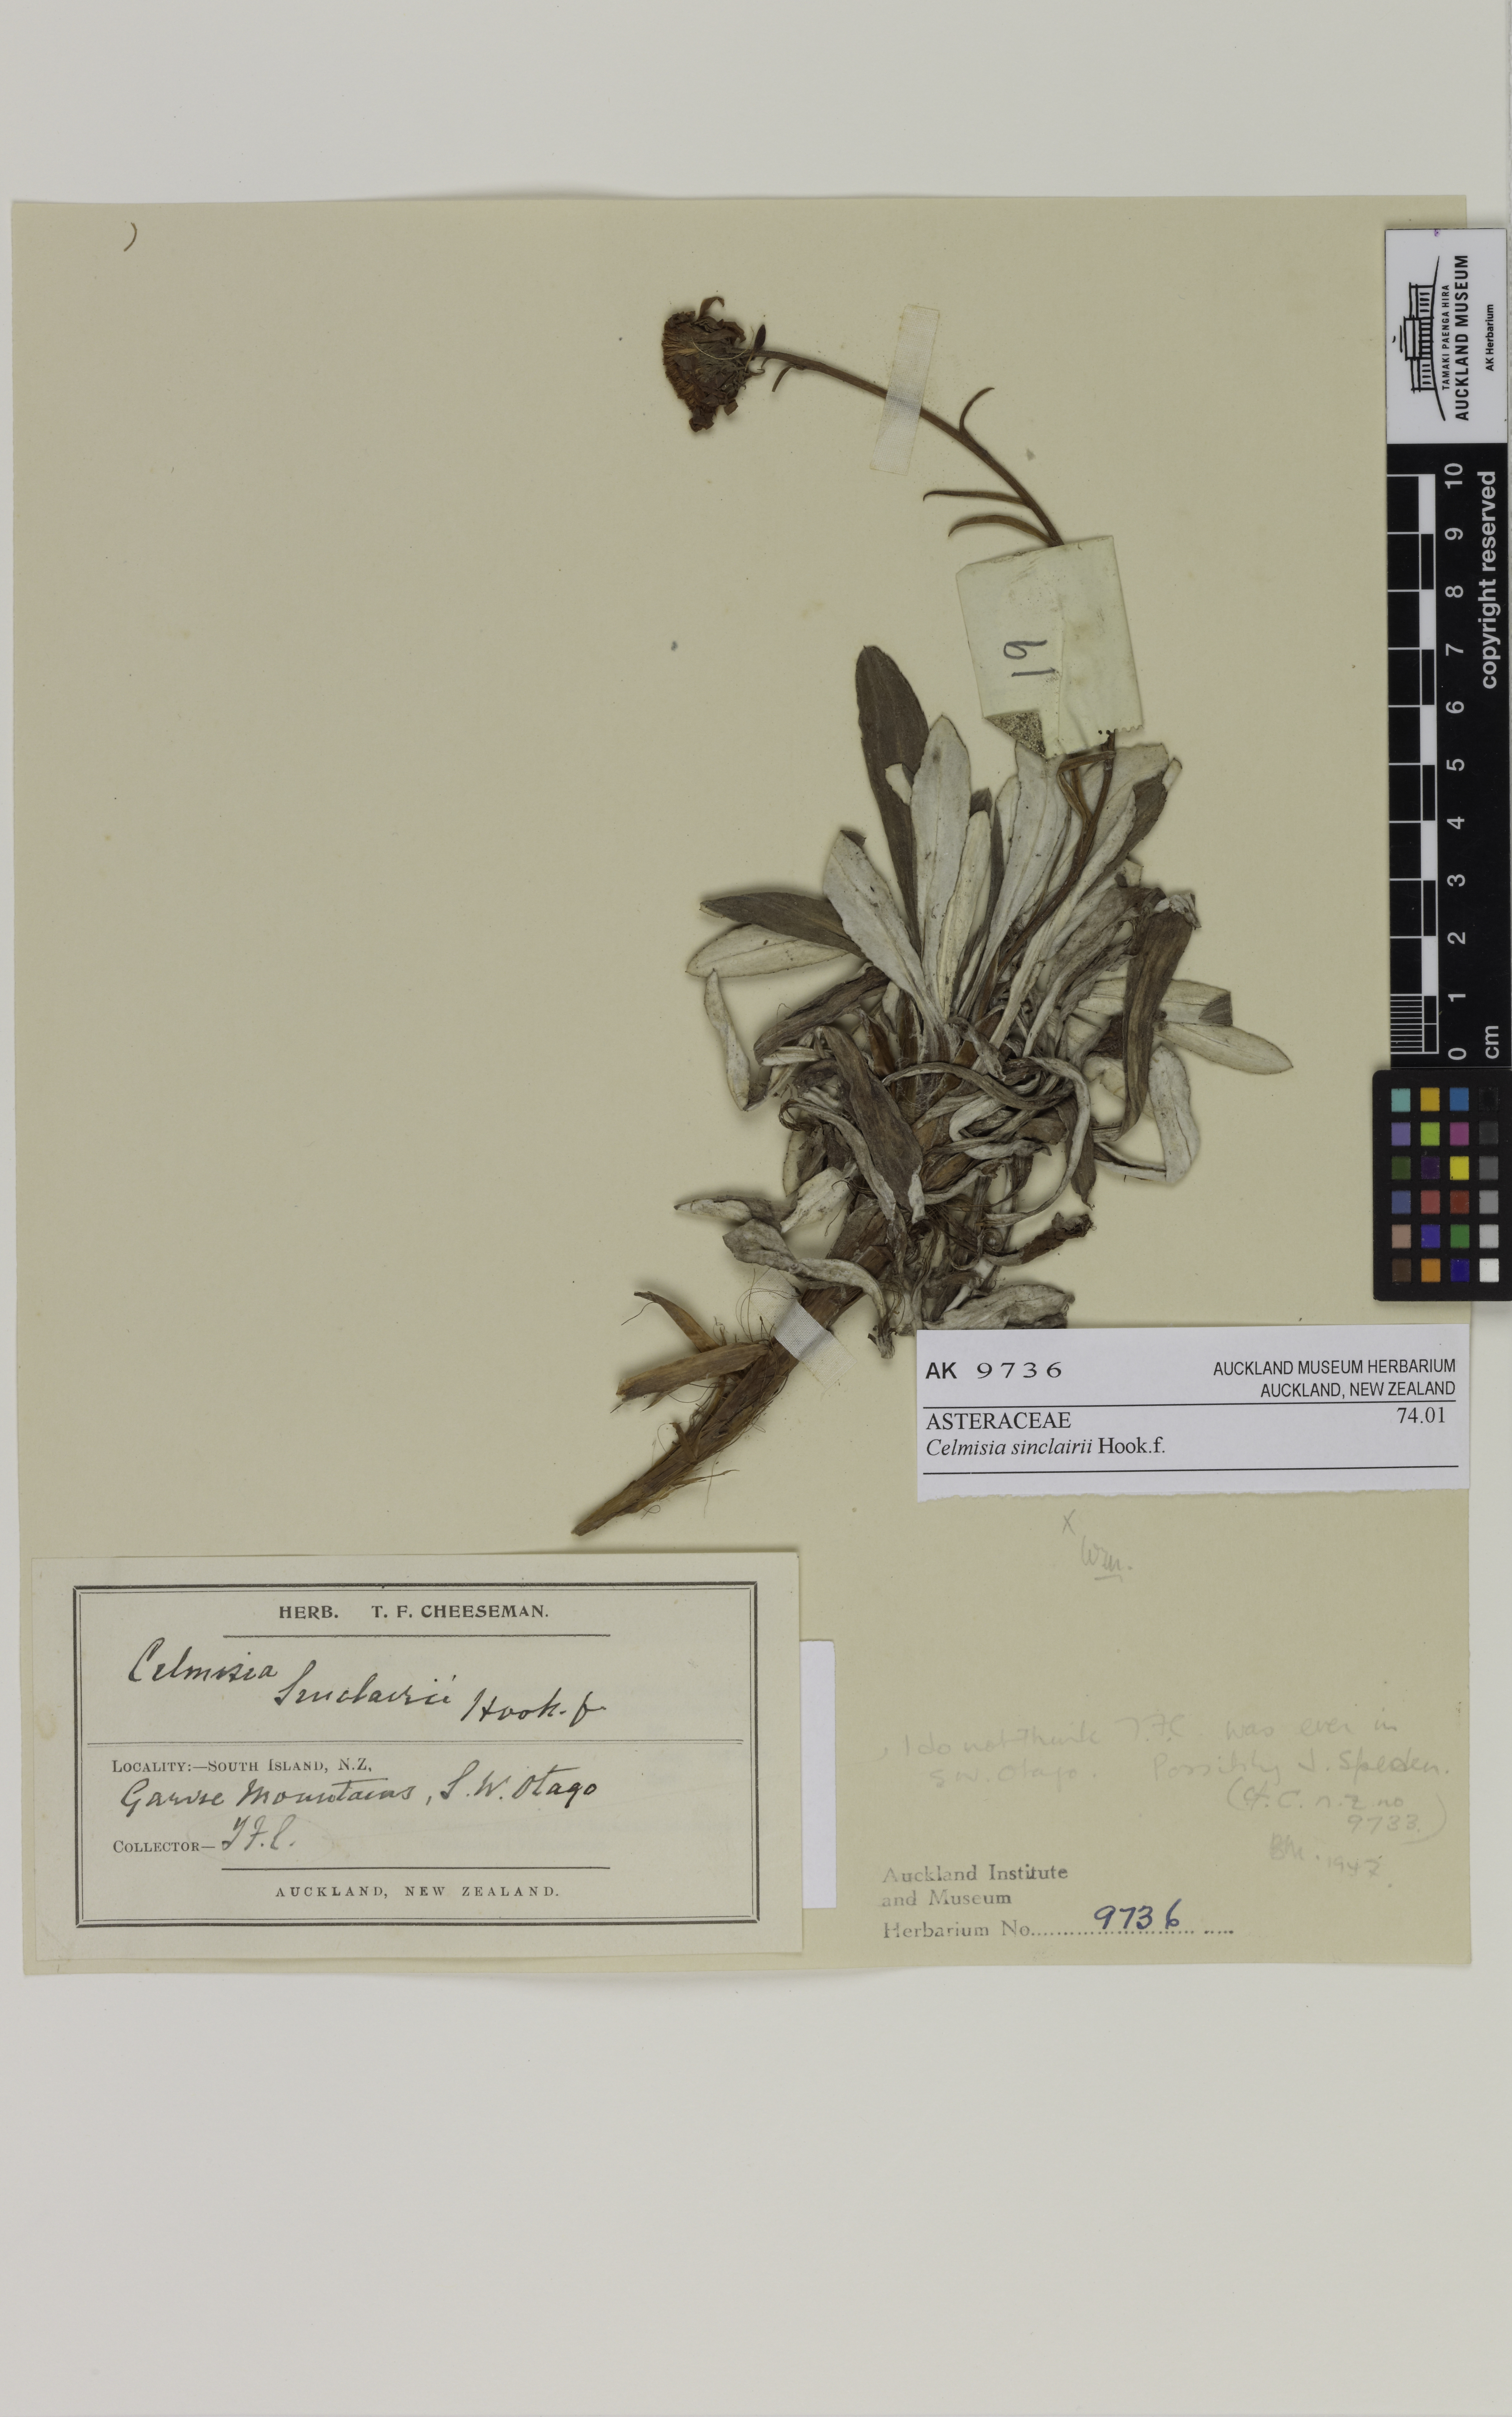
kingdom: Plantae
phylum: Tracheophyta
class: Magnoliopsida
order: Asterales
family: Asteraceae
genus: Celmisia
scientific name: Celmisia sinclairii
